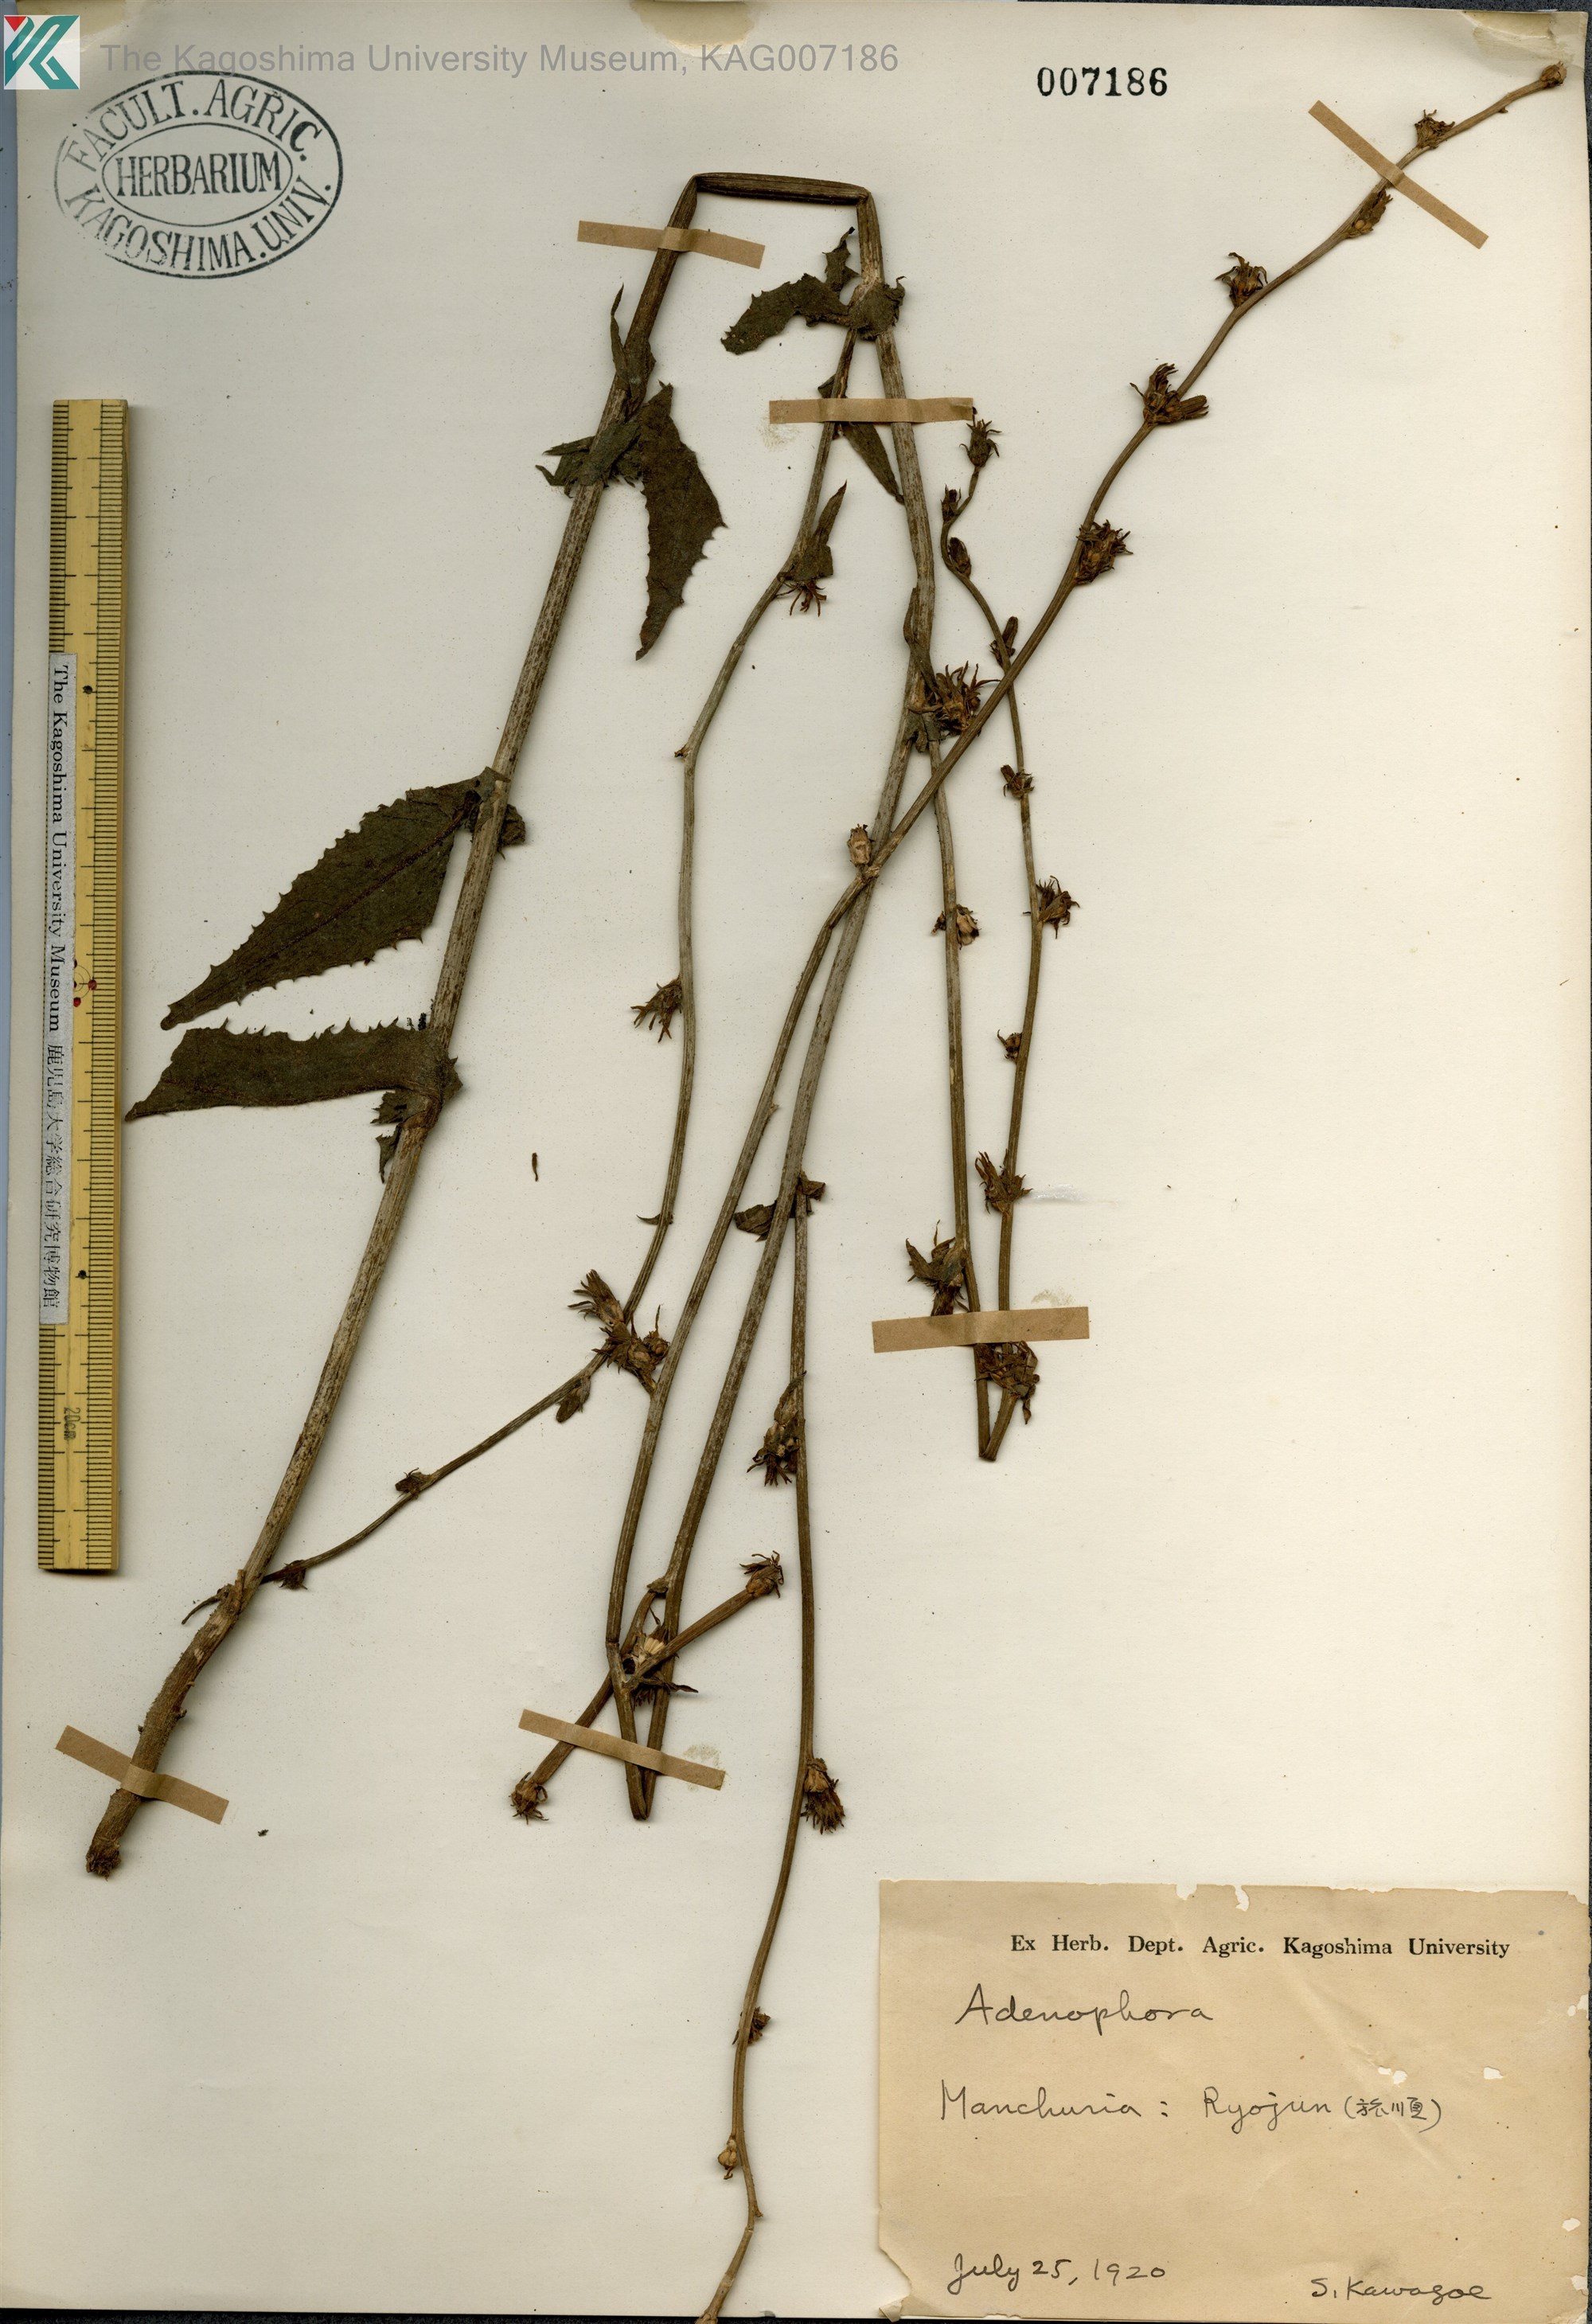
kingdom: Plantae
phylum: Tracheophyta
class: Magnoliopsida
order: Asterales
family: Campanulaceae
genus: Adenophora
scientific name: Adenophora
